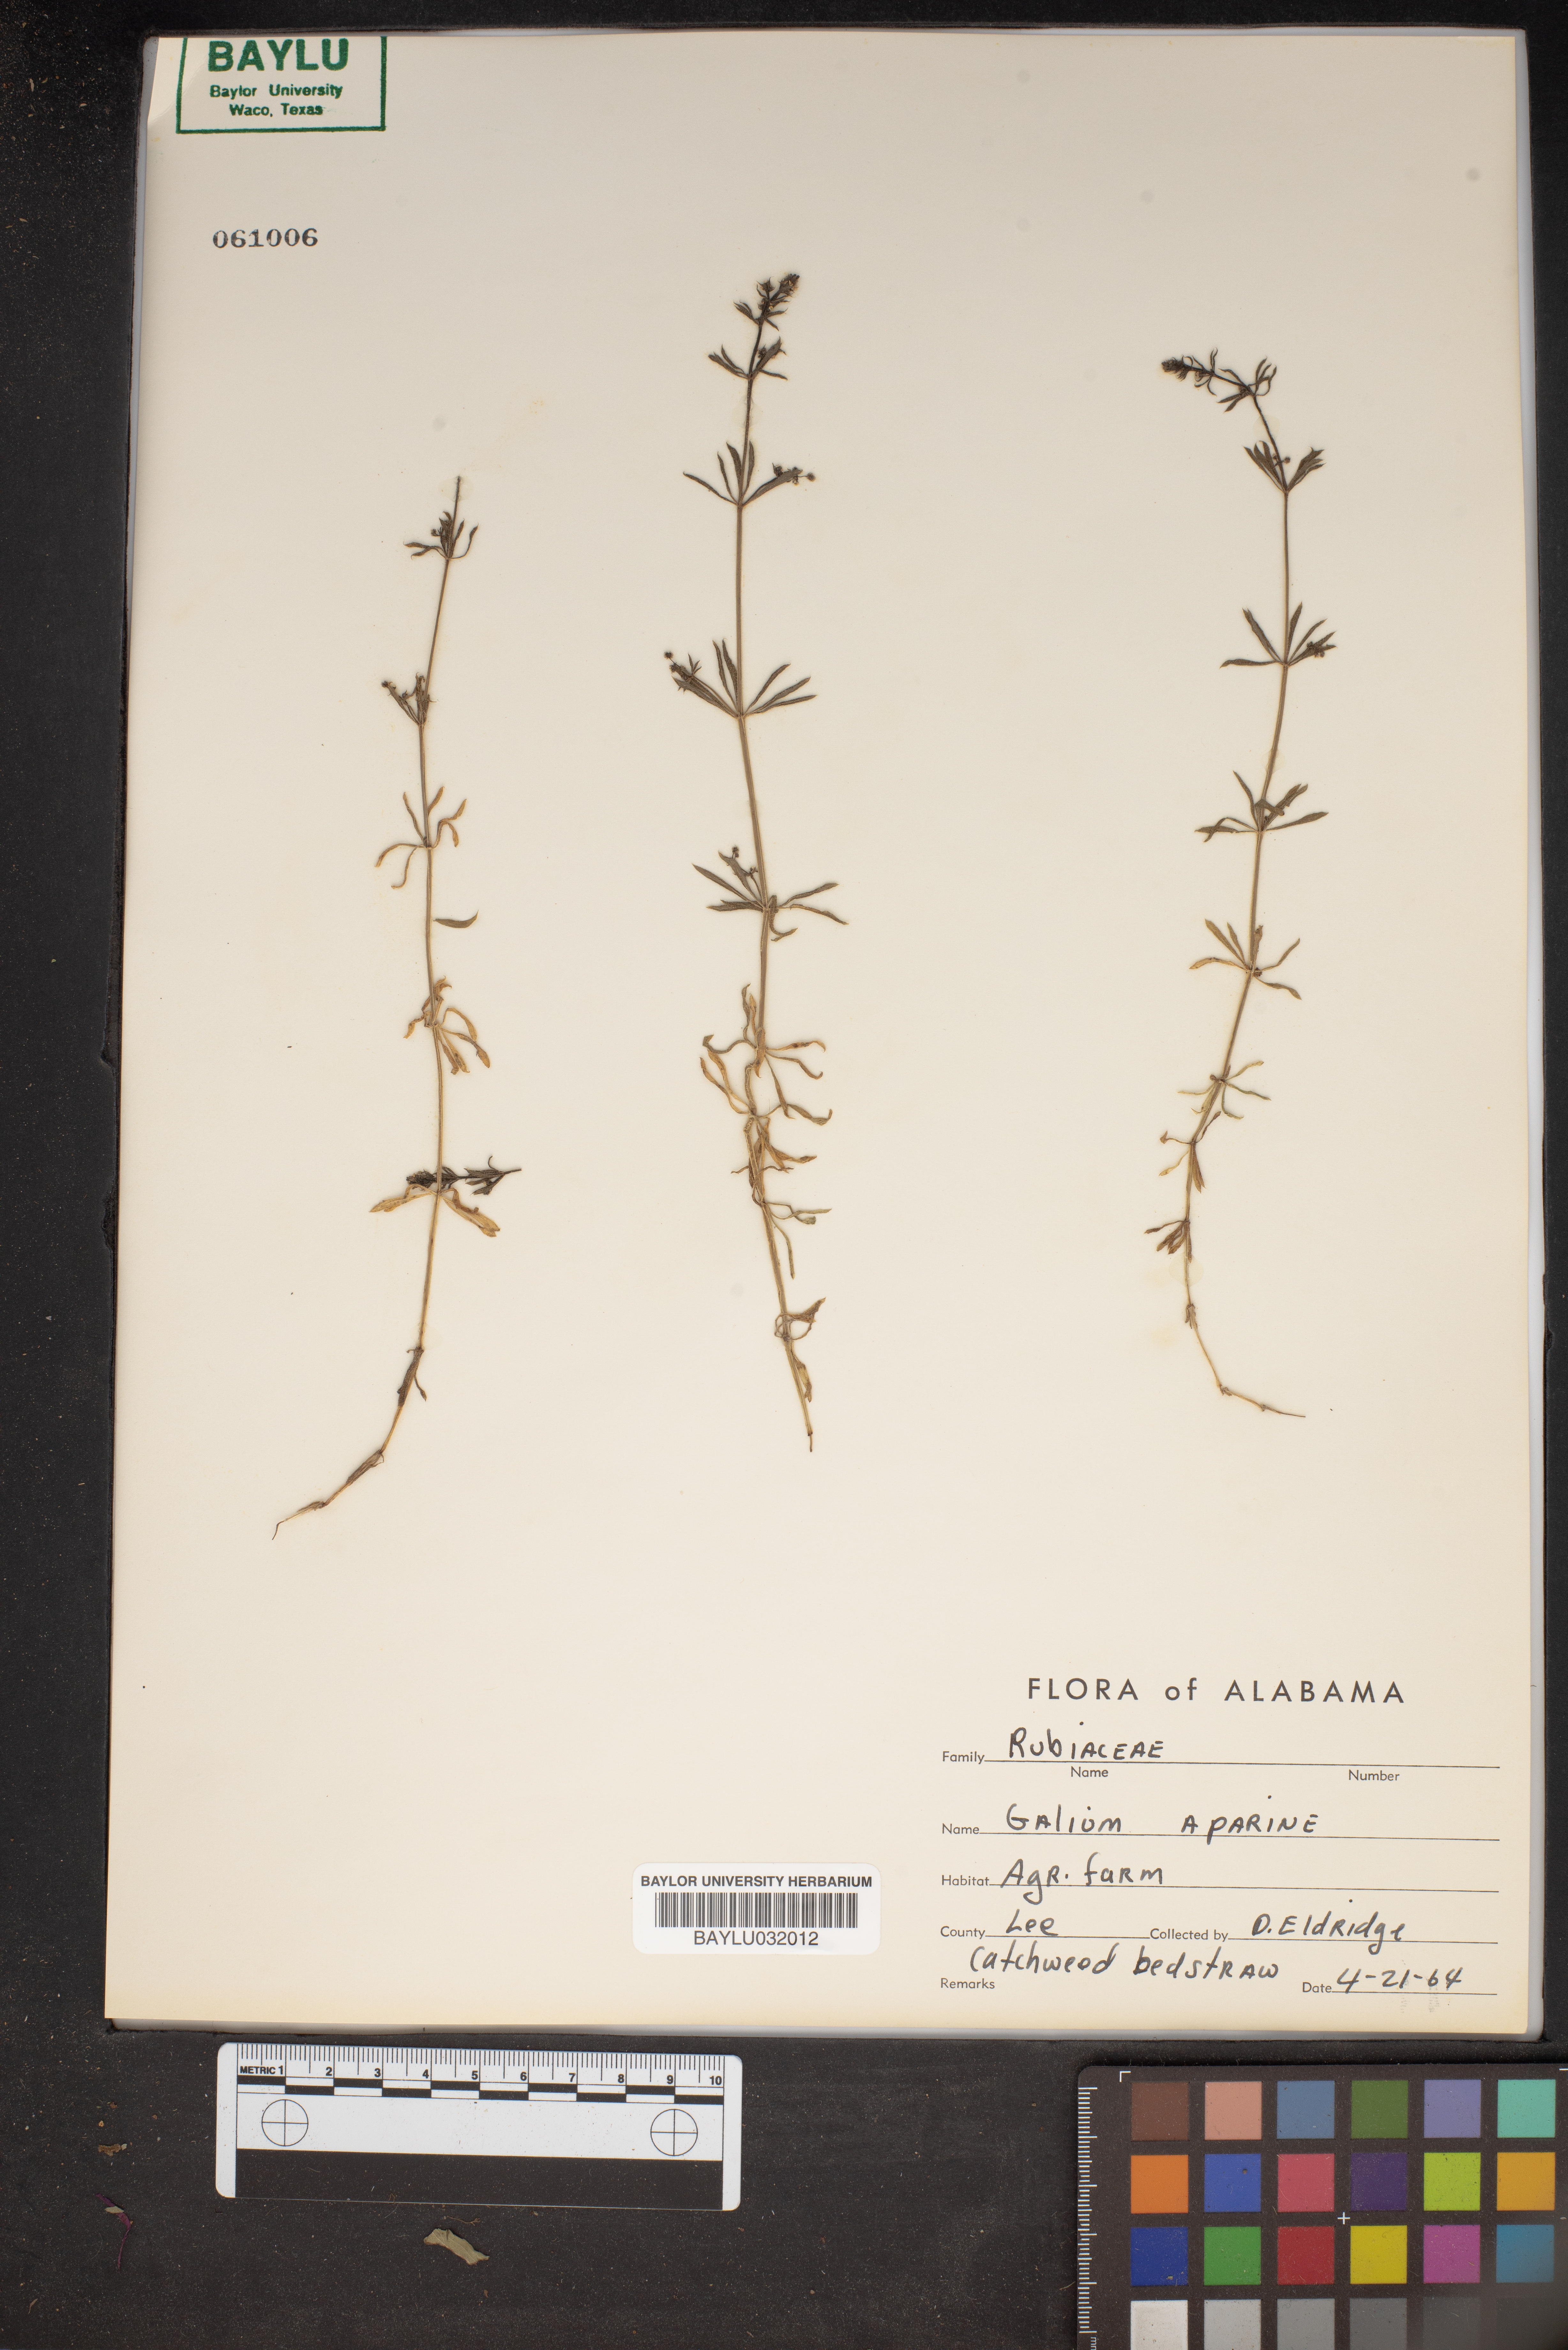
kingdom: Plantae
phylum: Tracheophyta
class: Magnoliopsida
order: Gentianales
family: Rubiaceae
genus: Galium
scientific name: Galium aparine
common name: Cleavers
